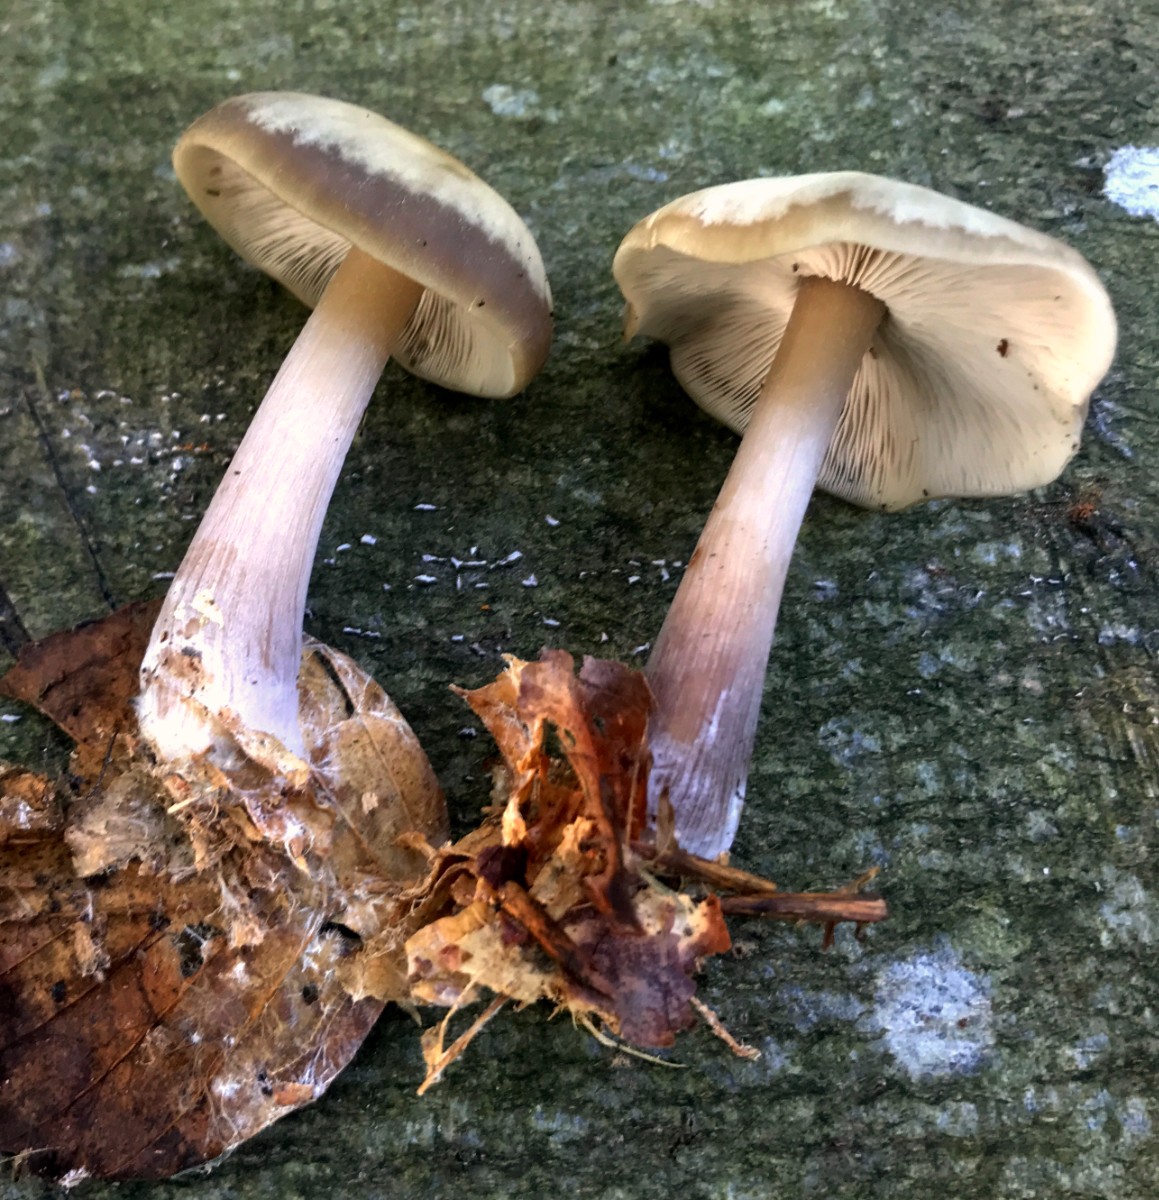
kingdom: Fungi
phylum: Basidiomycota
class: Agaricomycetes
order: Agaricales
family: Omphalotaceae
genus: Rhodocollybia
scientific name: Rhodocollybia asema
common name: horngrå fladhat
